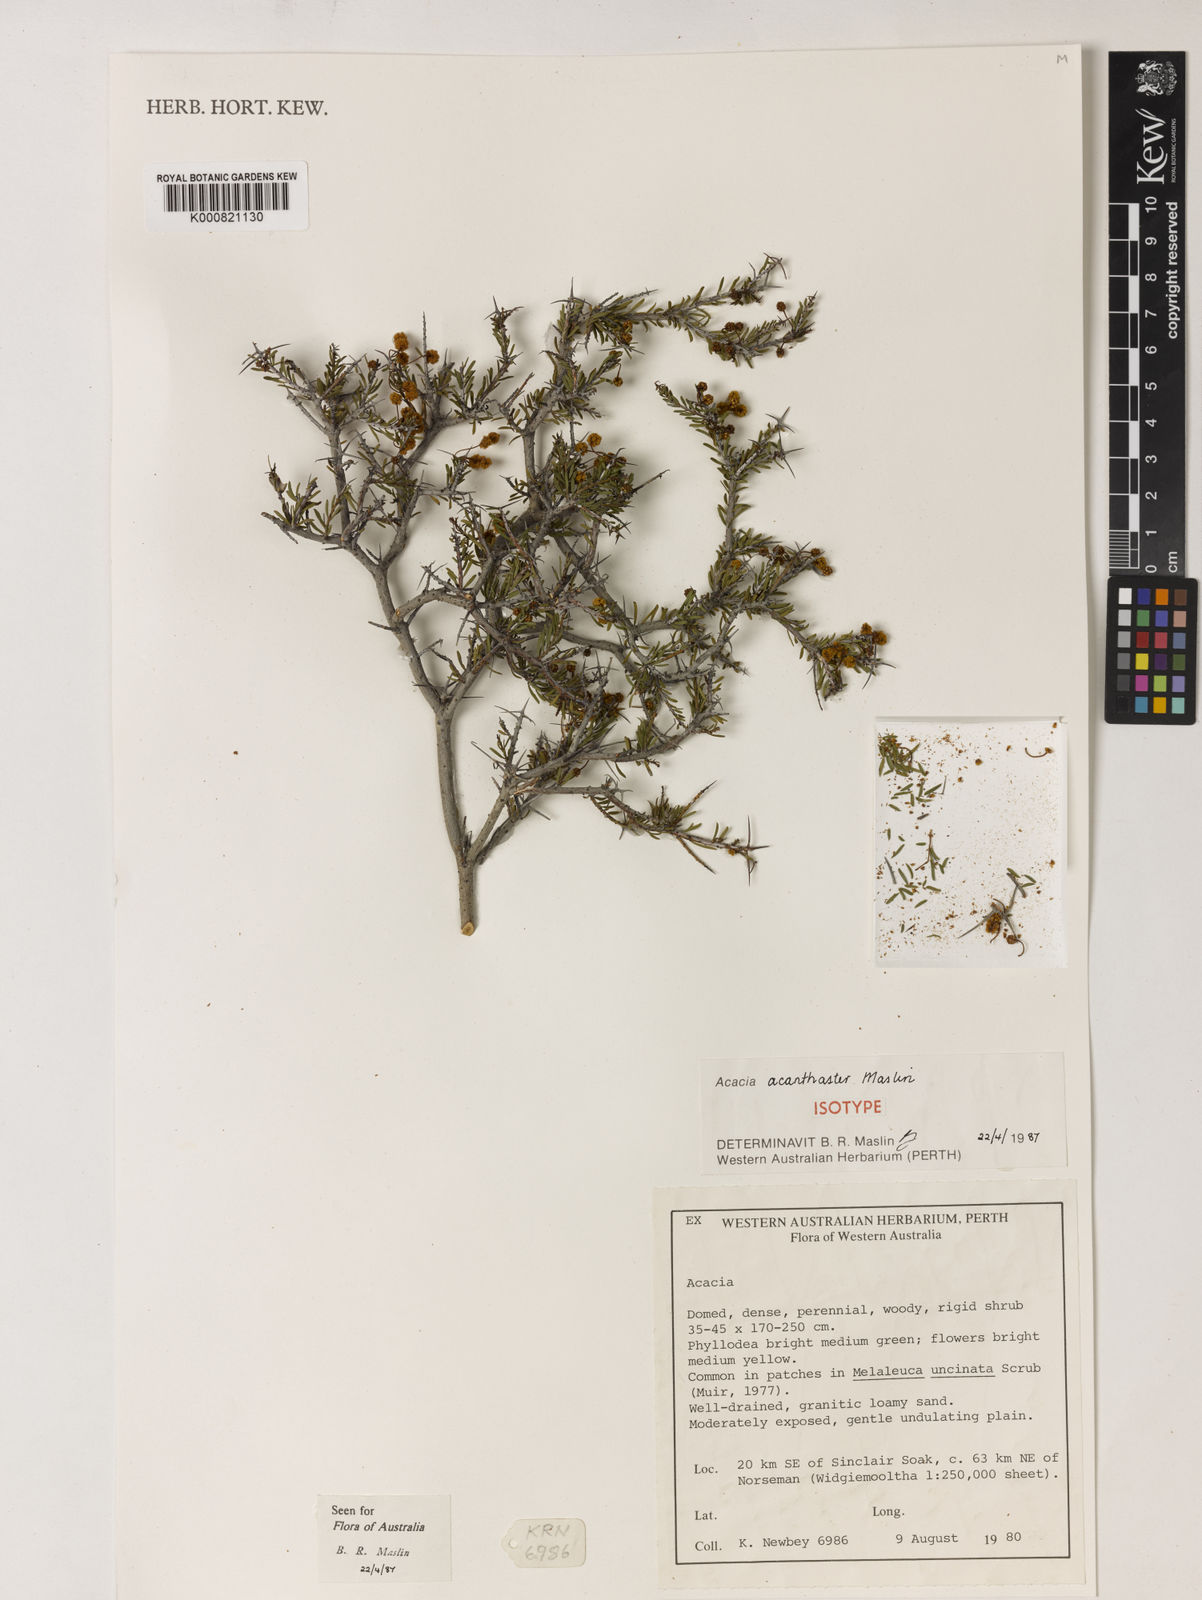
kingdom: Plantae
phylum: Tracheophyta
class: Magnoliopsida
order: Fabales
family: Fabaceae
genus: Acacia
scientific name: Acacia acanthaster
